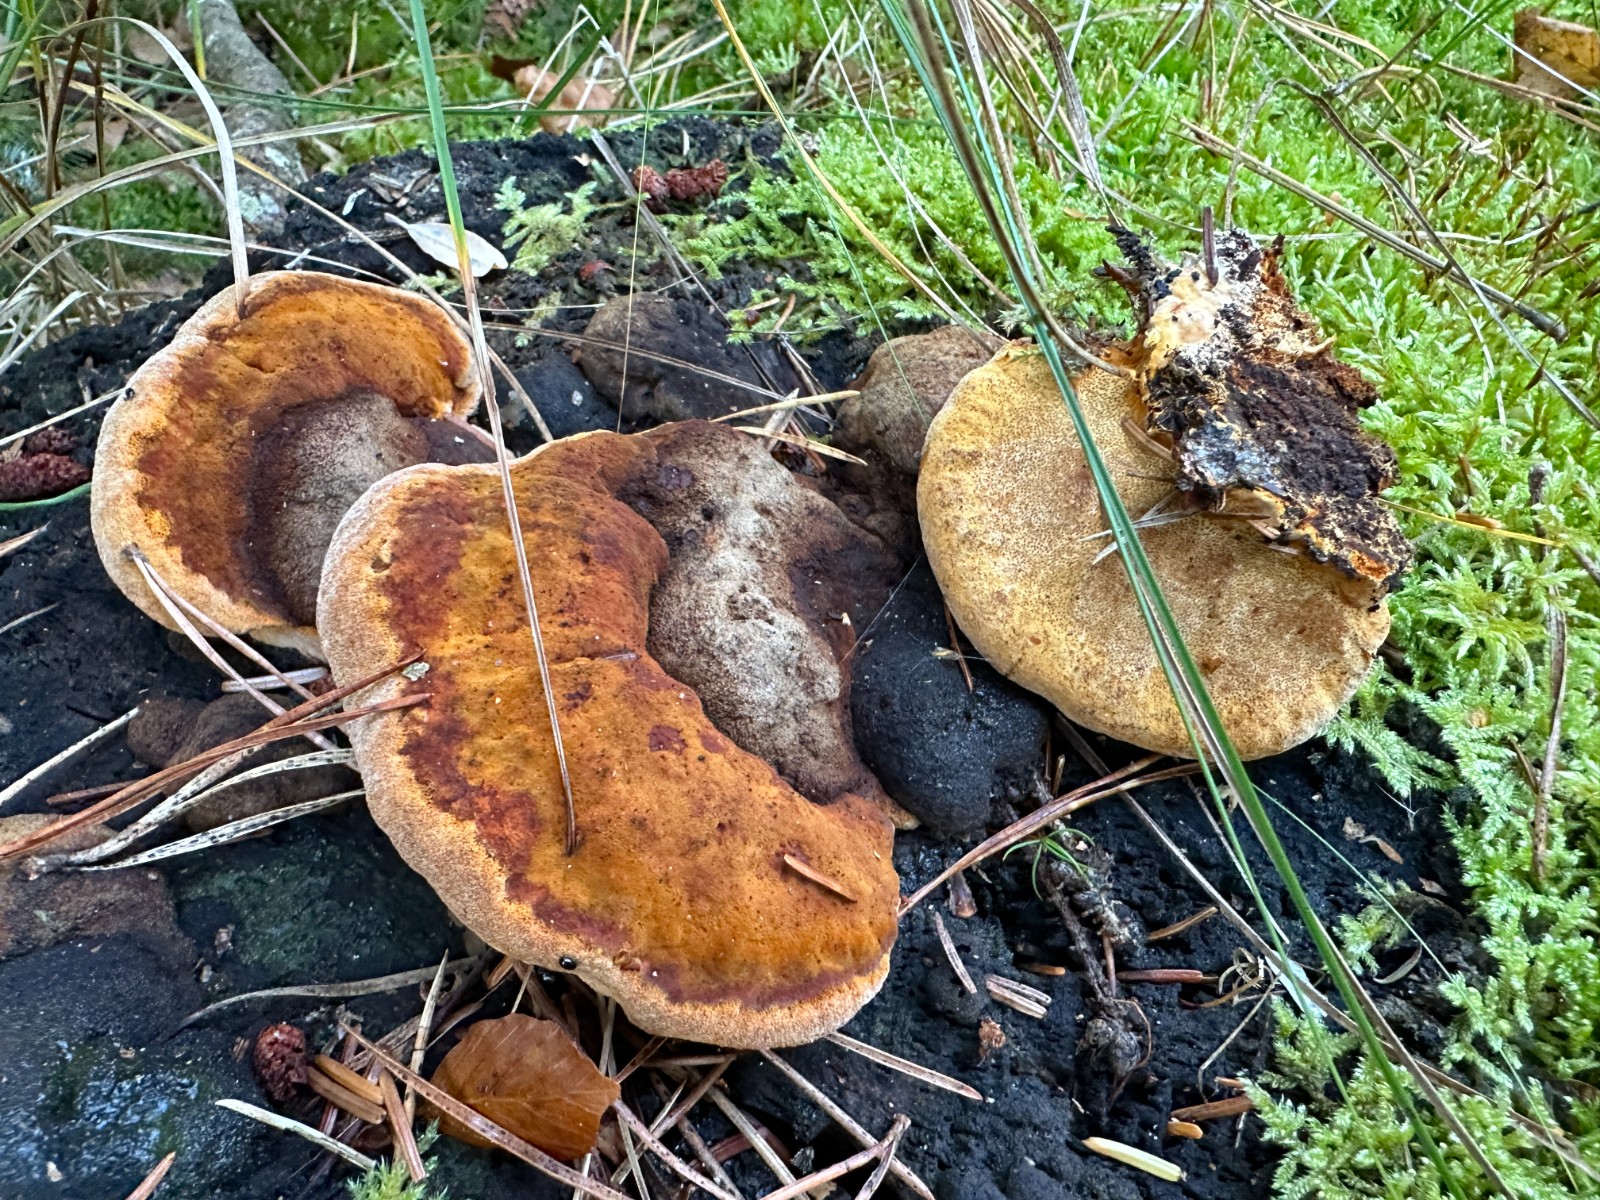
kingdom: Fungi
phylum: Basidiomycota
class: Agaricomycetes
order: Gloeophyllales
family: Gloeophyllaceae
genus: Gloeophyllum
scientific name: Gloeophyllum odoratum
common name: duftende korkhat
